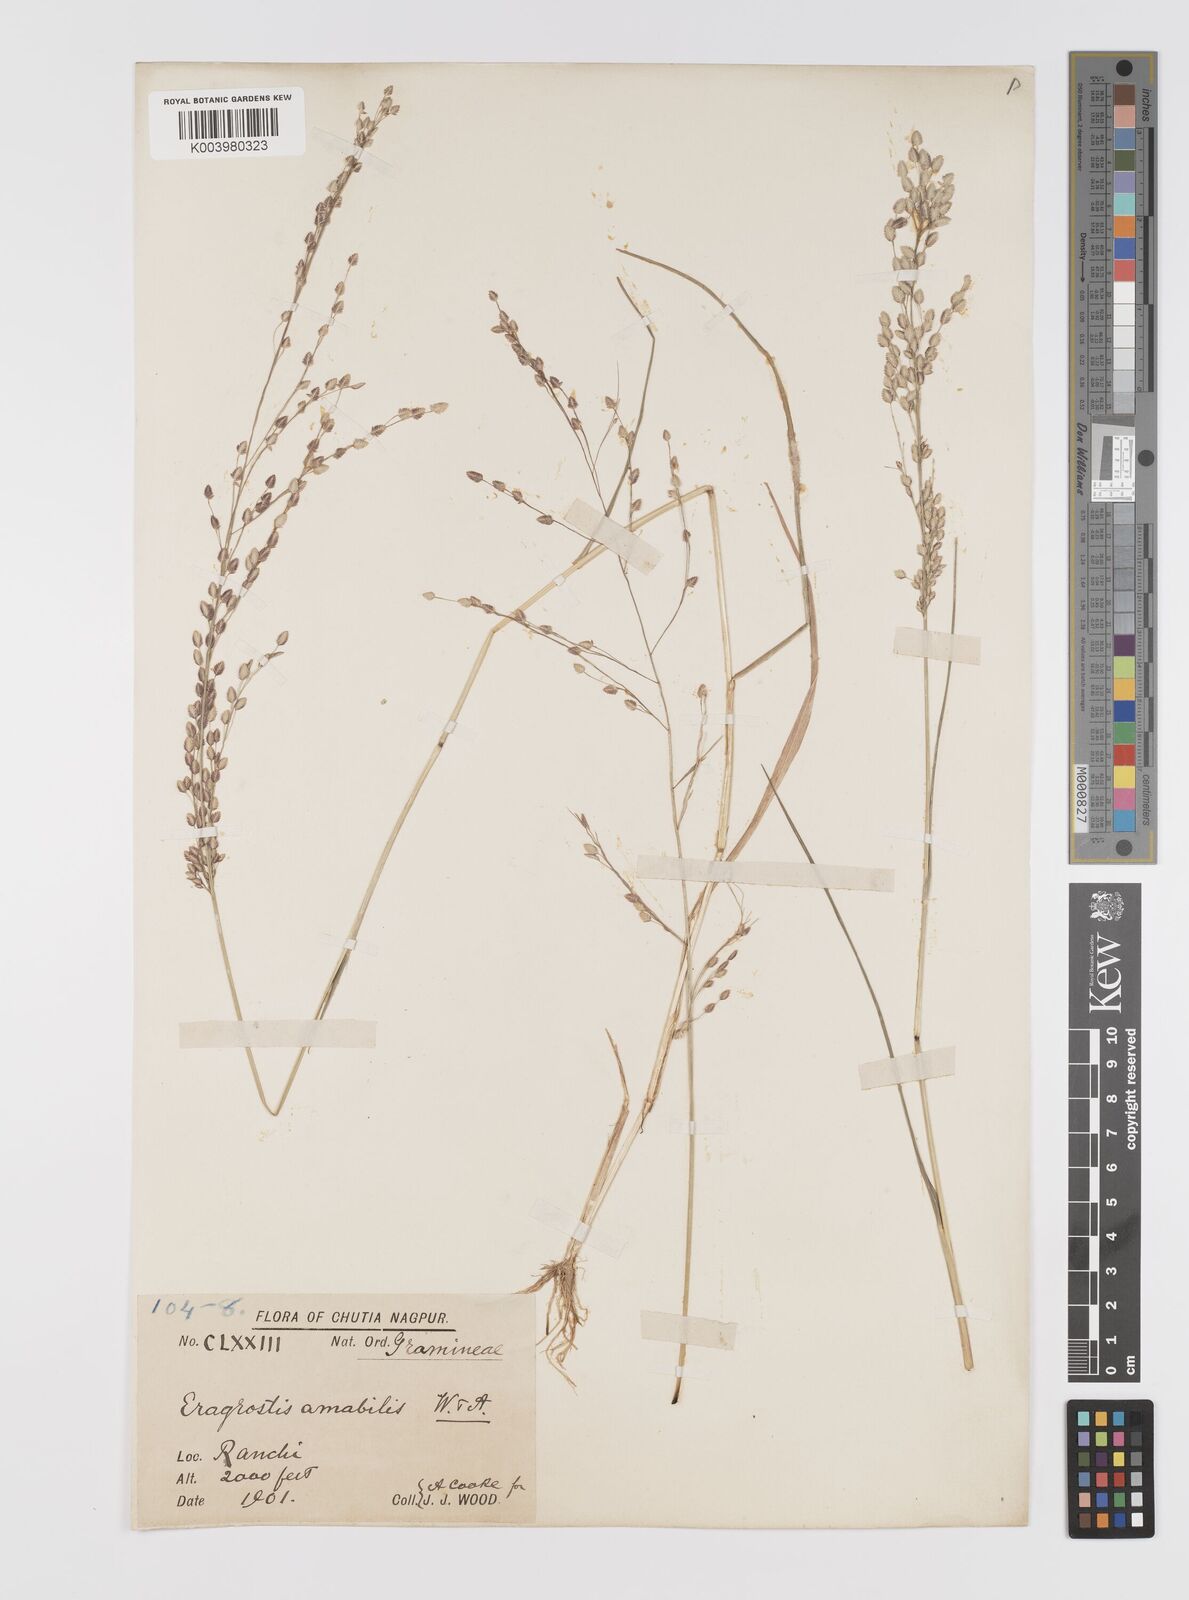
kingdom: Plantae
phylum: Tracheophyta
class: Liliopsida
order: Poales
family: Poaceae
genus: Eragrostis
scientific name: Eragrostis unioloides
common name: Chinese lovegrass
